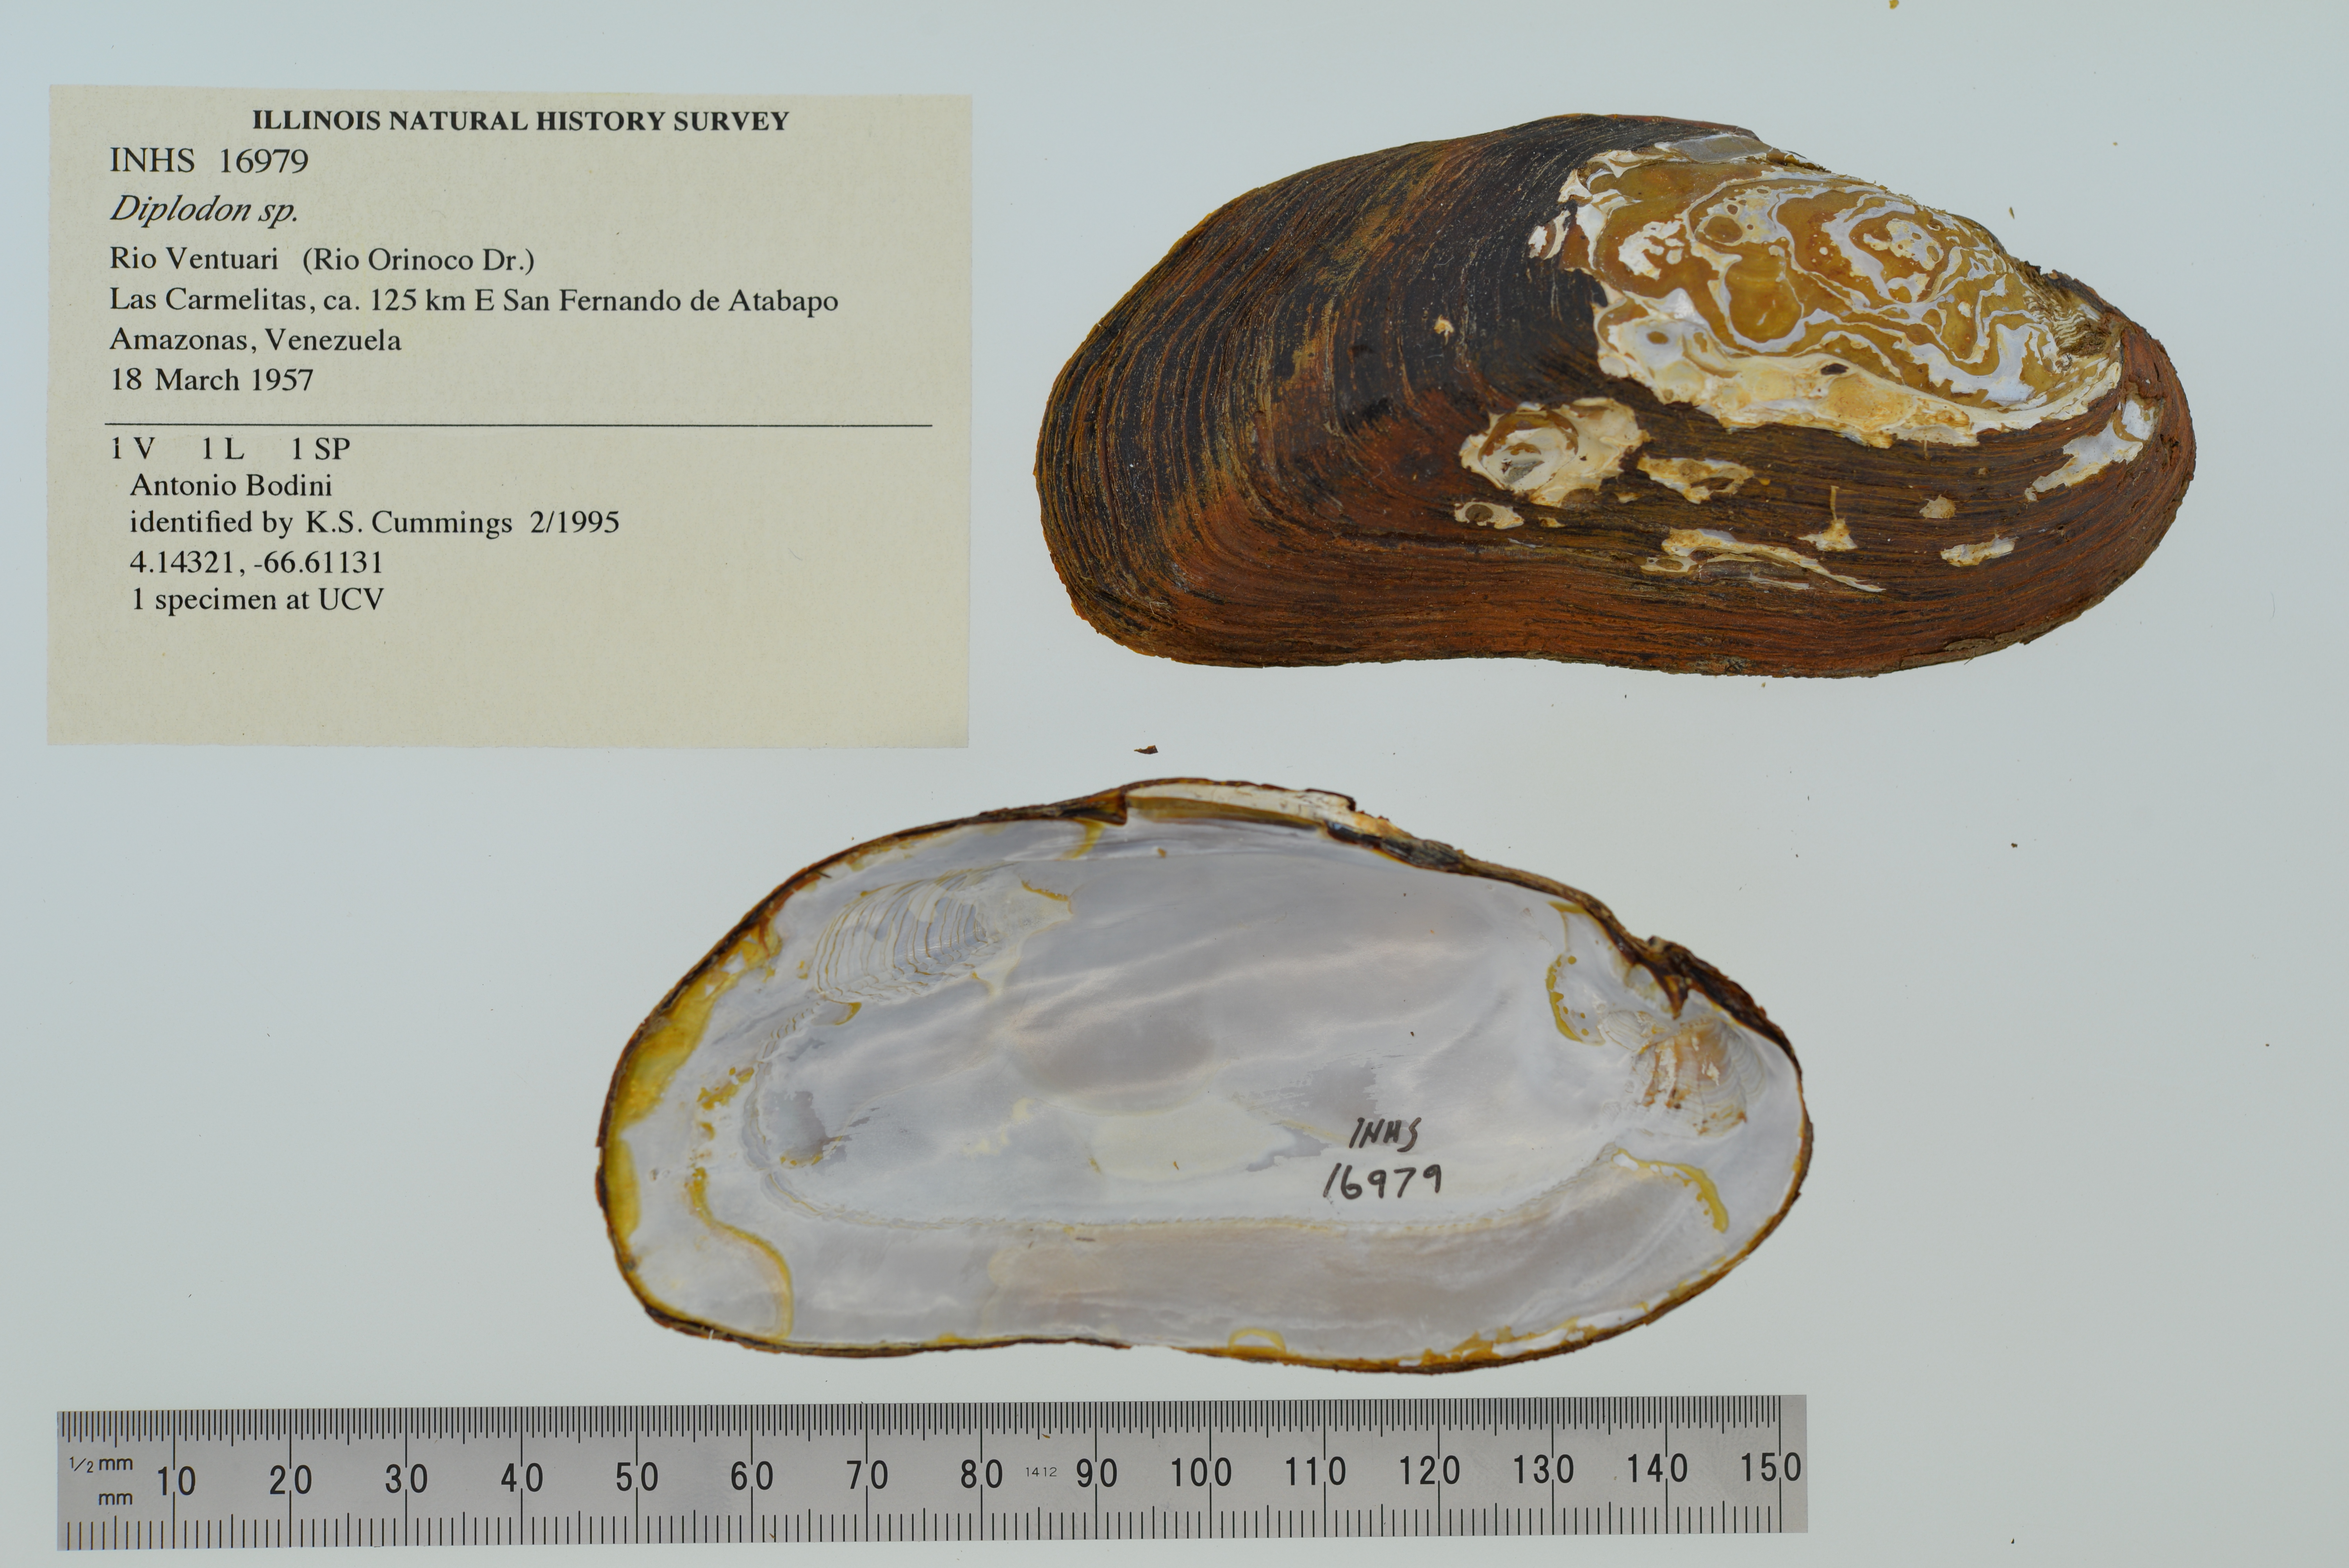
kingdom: Animalia
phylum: Mollusca
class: Bivalvia
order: Unionida
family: Hyriidae
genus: Diplodon
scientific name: Diplodon
